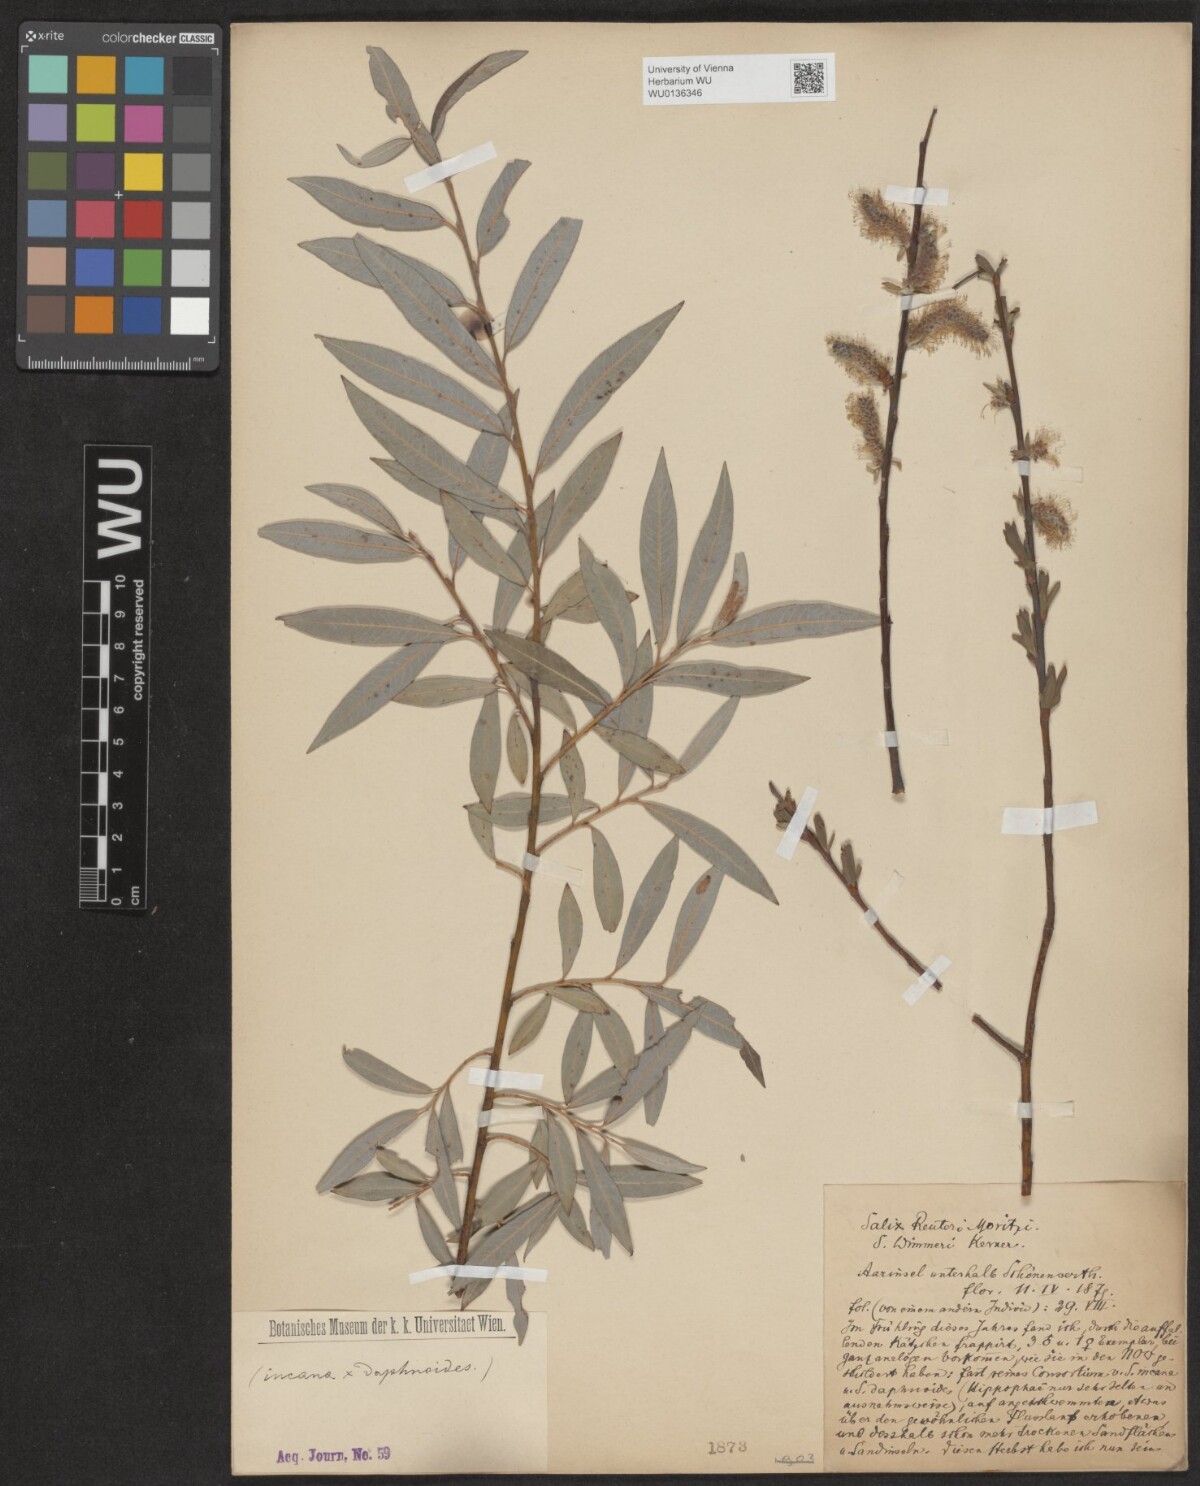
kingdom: Plantae
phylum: Tracheophyta
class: Magnoliopsida
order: Malpighiales
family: Salicaceae
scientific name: Salicaceae
